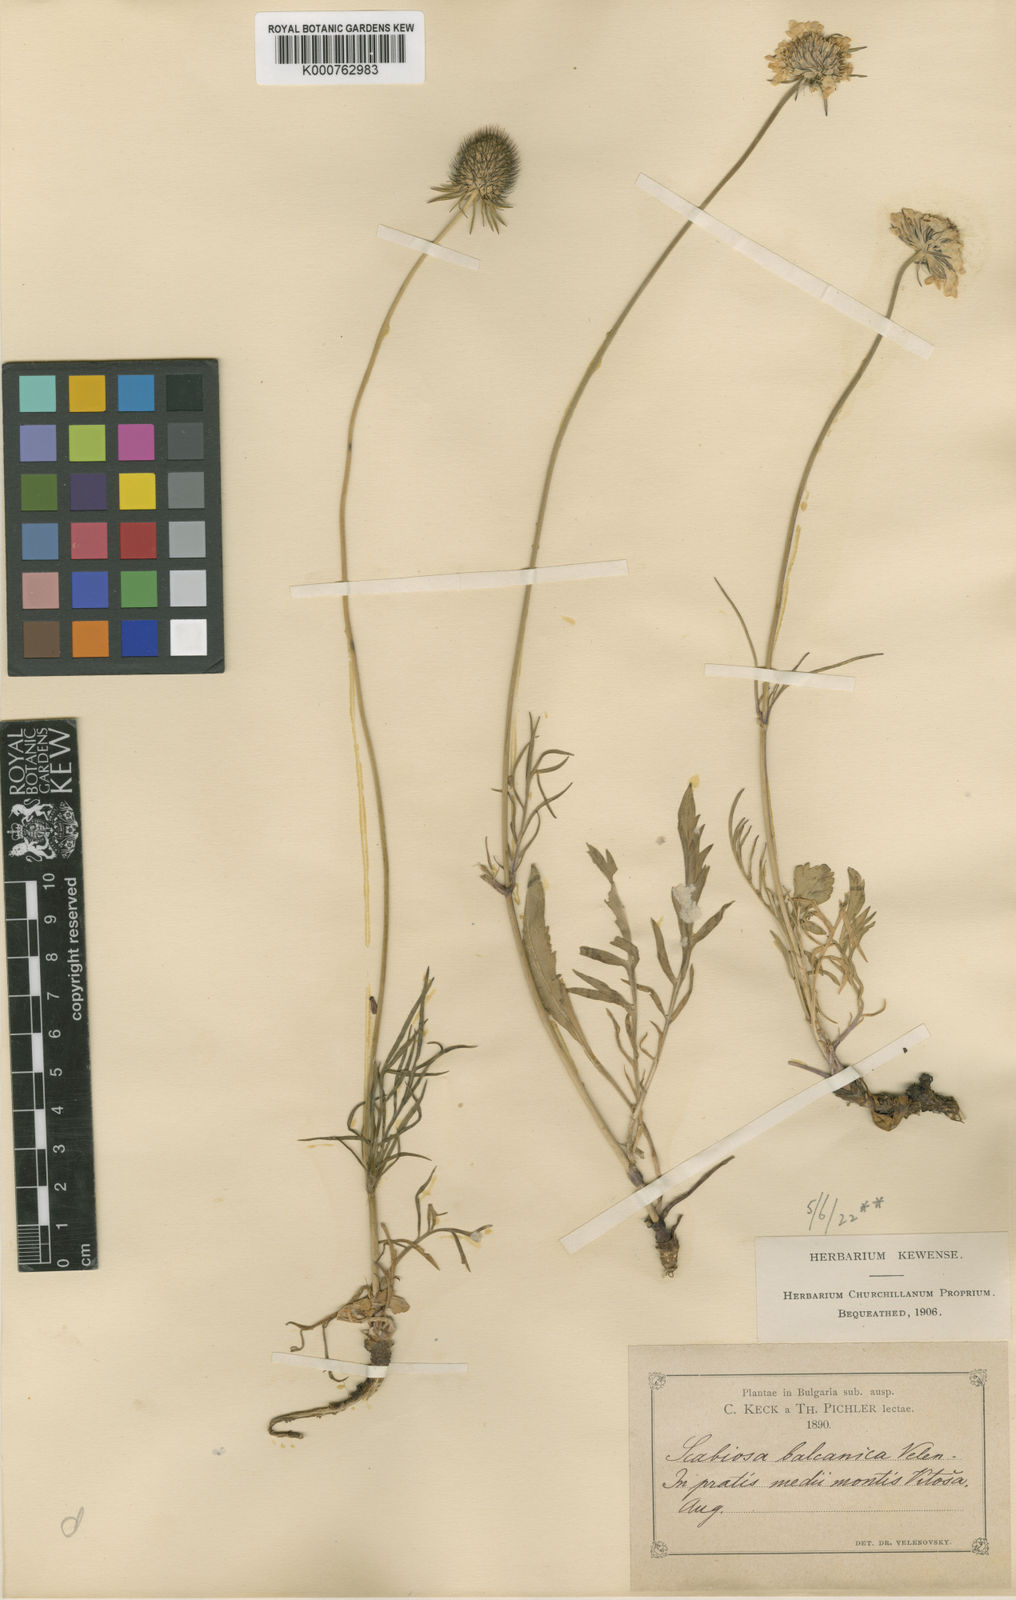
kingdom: Plantae
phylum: Tracheophyta
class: Magnoliopsida
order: Dipsacales
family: Caprifoliaceae
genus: Scabiosa
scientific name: Scabiosa
